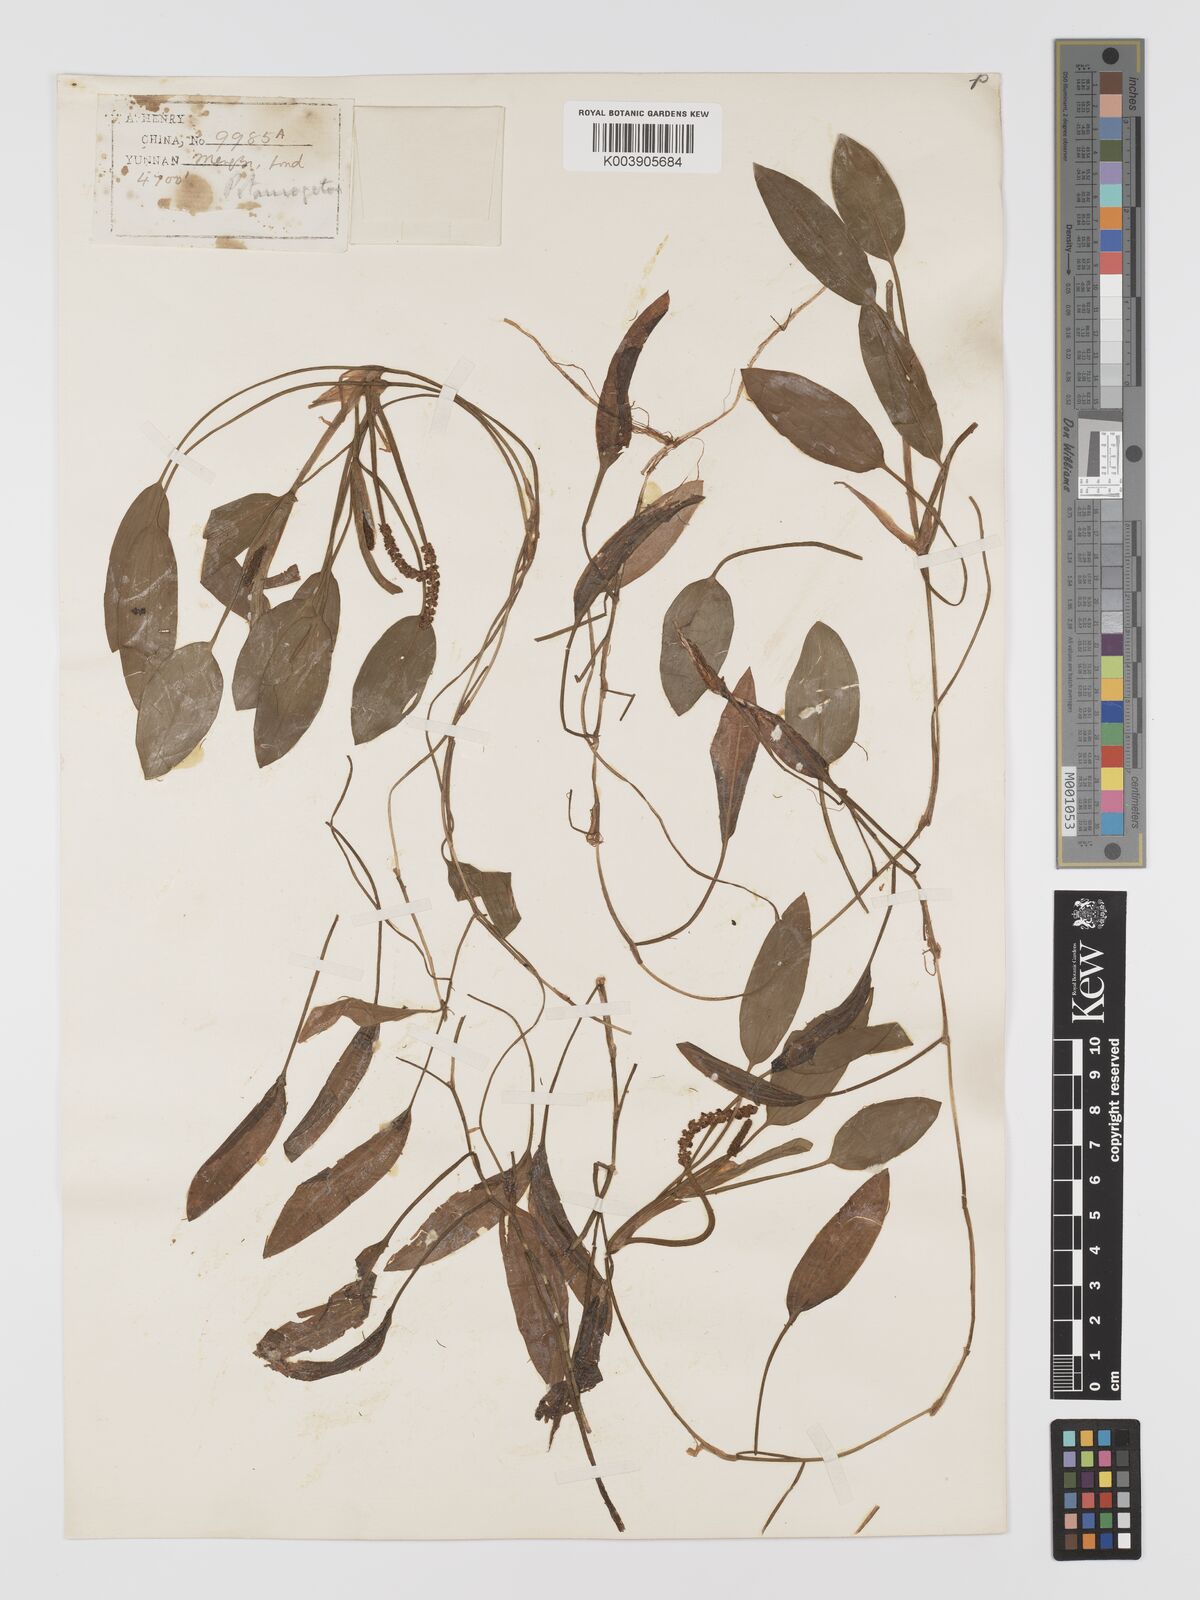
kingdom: Plantae
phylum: Tracheophyta
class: Liliopsida
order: Alismatales
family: Potamogetonaceae
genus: Potamogeton
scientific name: Potamogeton distinctus
